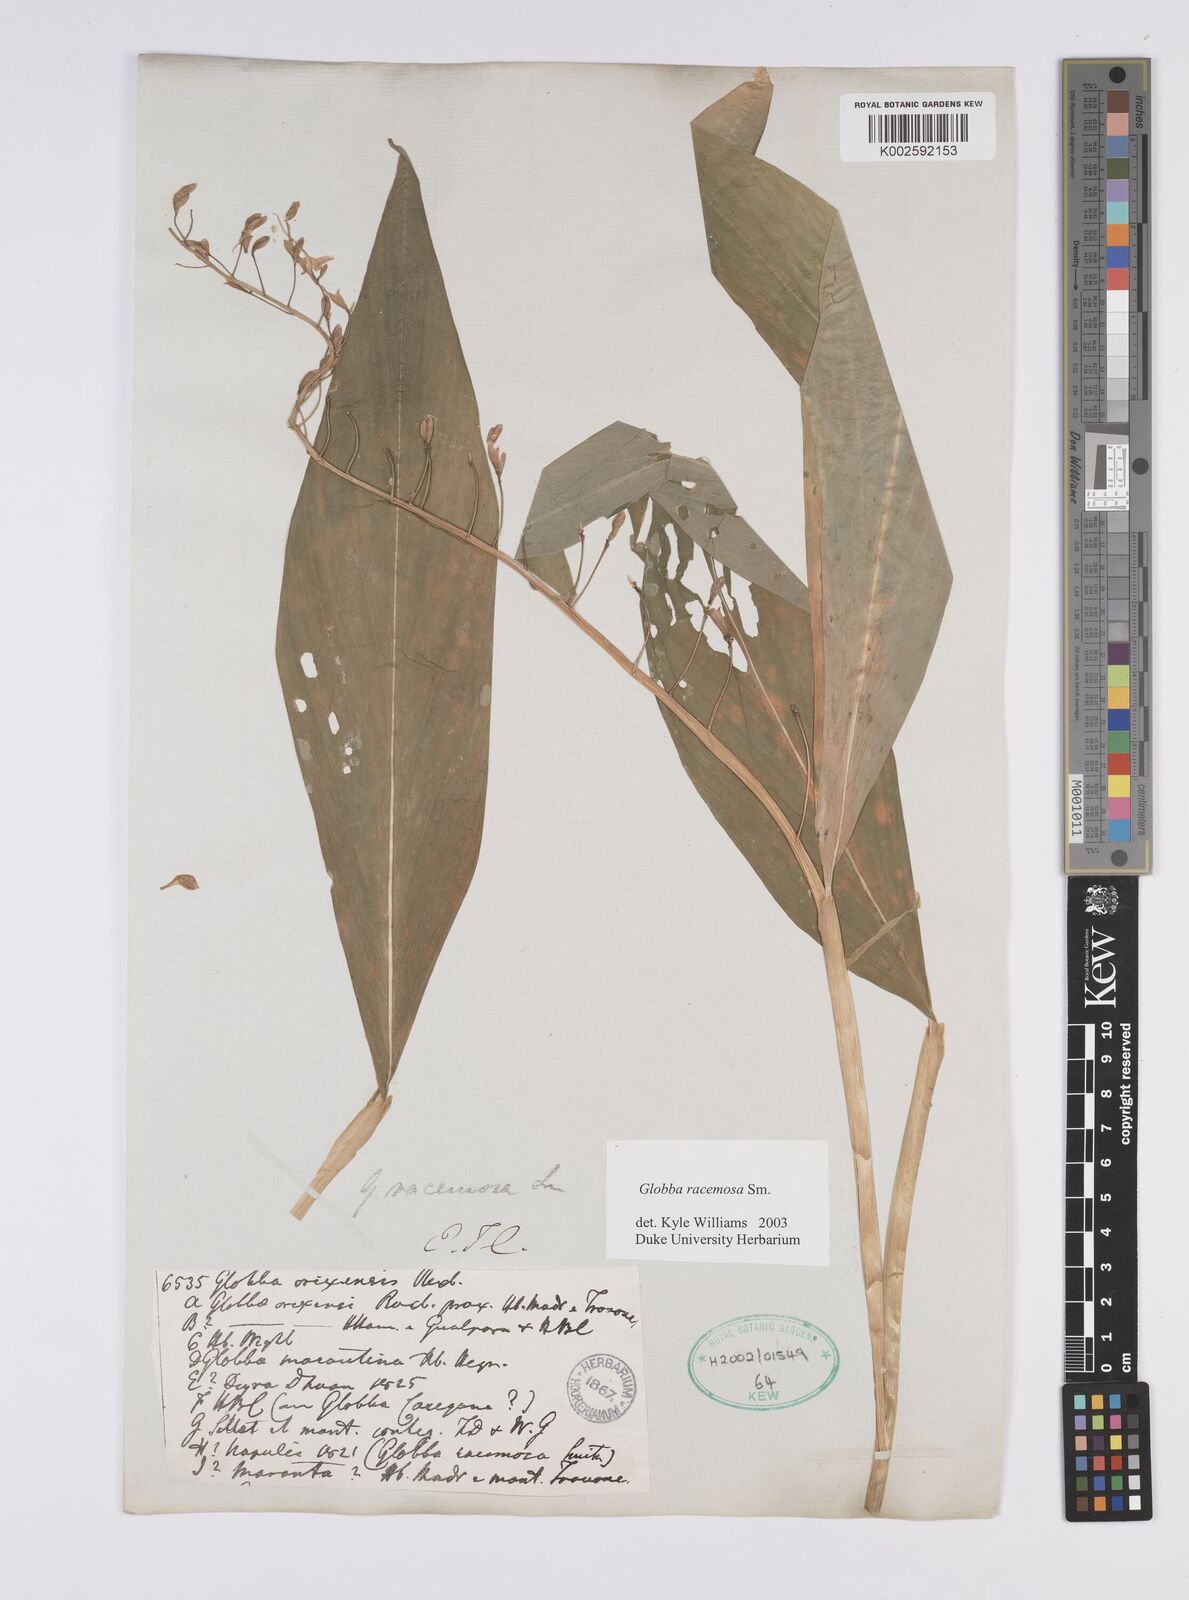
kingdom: Plantae
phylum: Tracheophyta
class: Liliopsida
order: Zingiberales
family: Zingiberaceae
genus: Globba
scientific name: Globba racemosa
